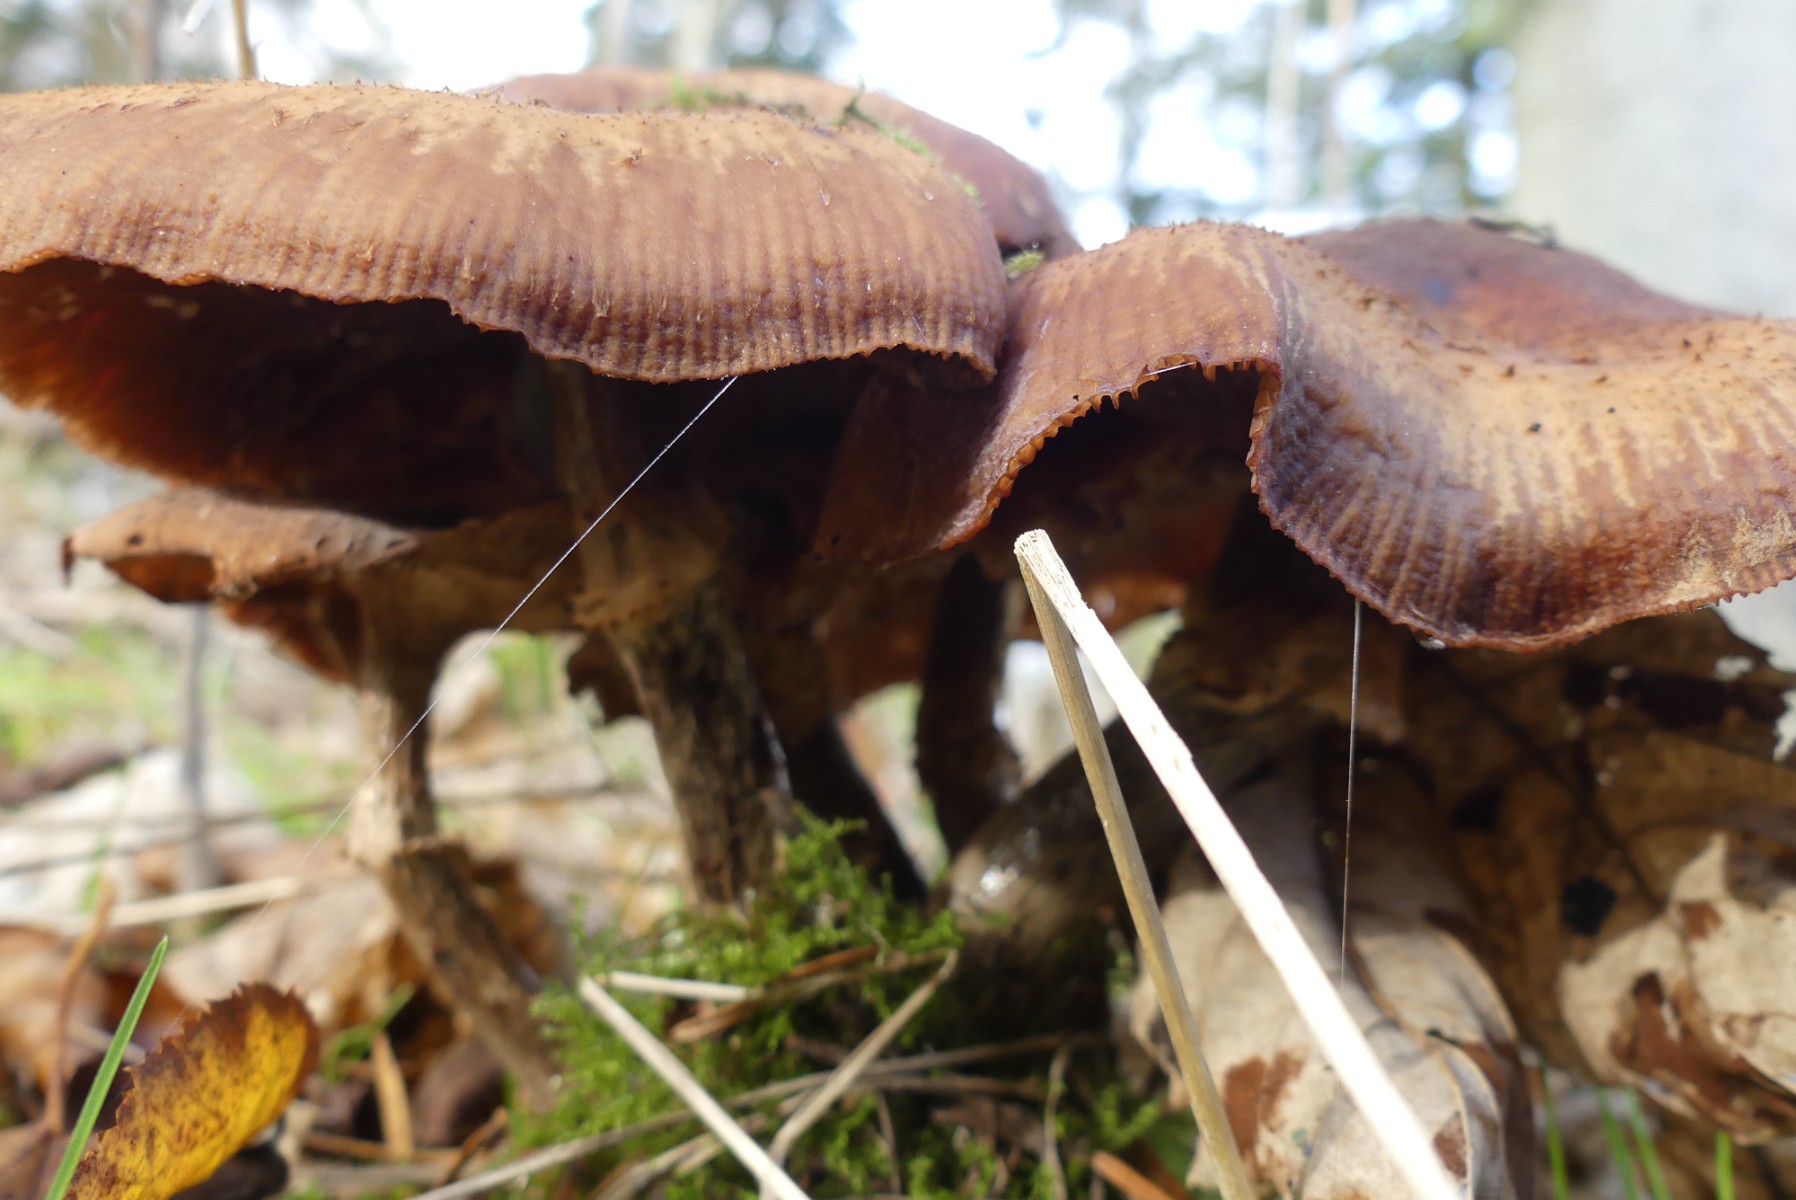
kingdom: Fungi
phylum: Basidiomycota
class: Agaricomycetes
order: Agaricales
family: Physalacriaceae
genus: Armillaria
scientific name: Armillaria
